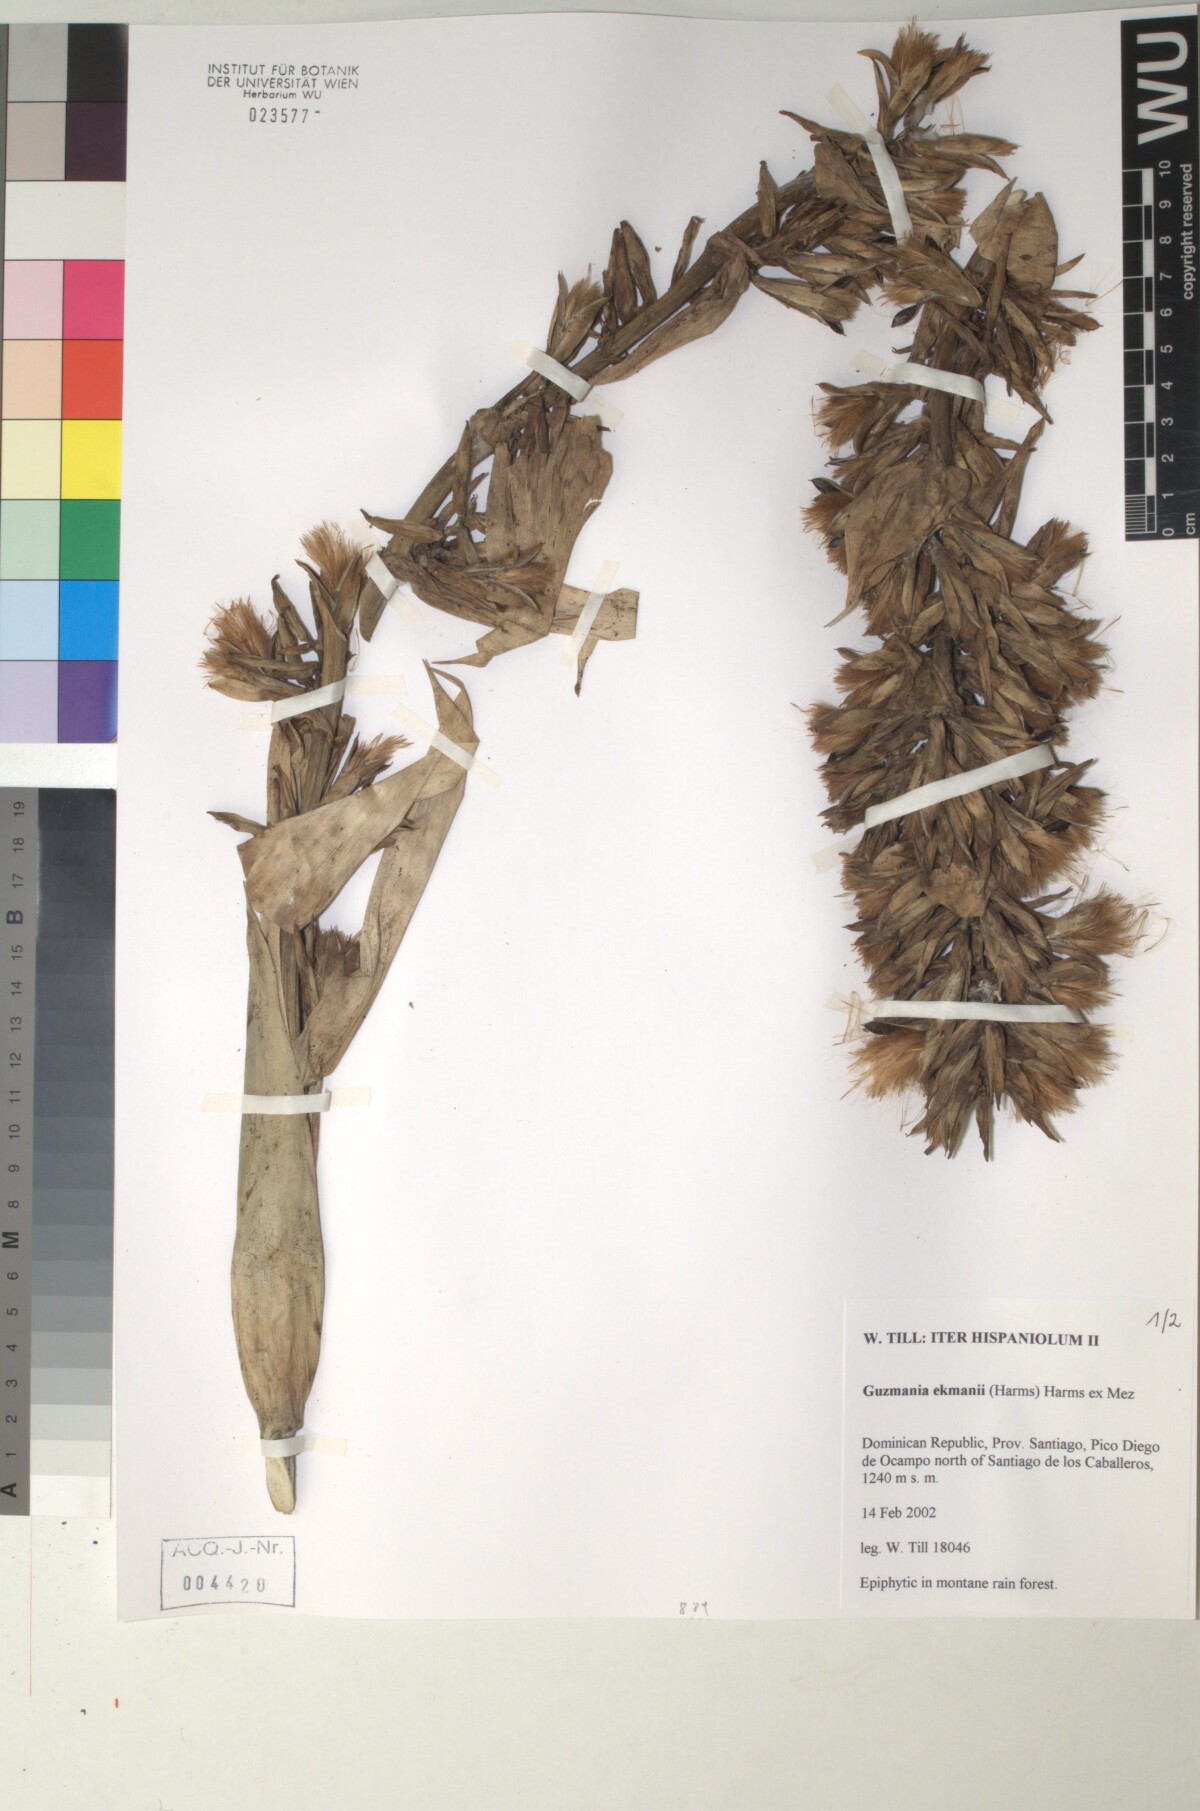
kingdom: Plantae
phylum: Tracheophyta
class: Liliopsida
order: Poales
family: Bromeliaceae
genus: Guzmania
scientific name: Guzmania ekmanii
